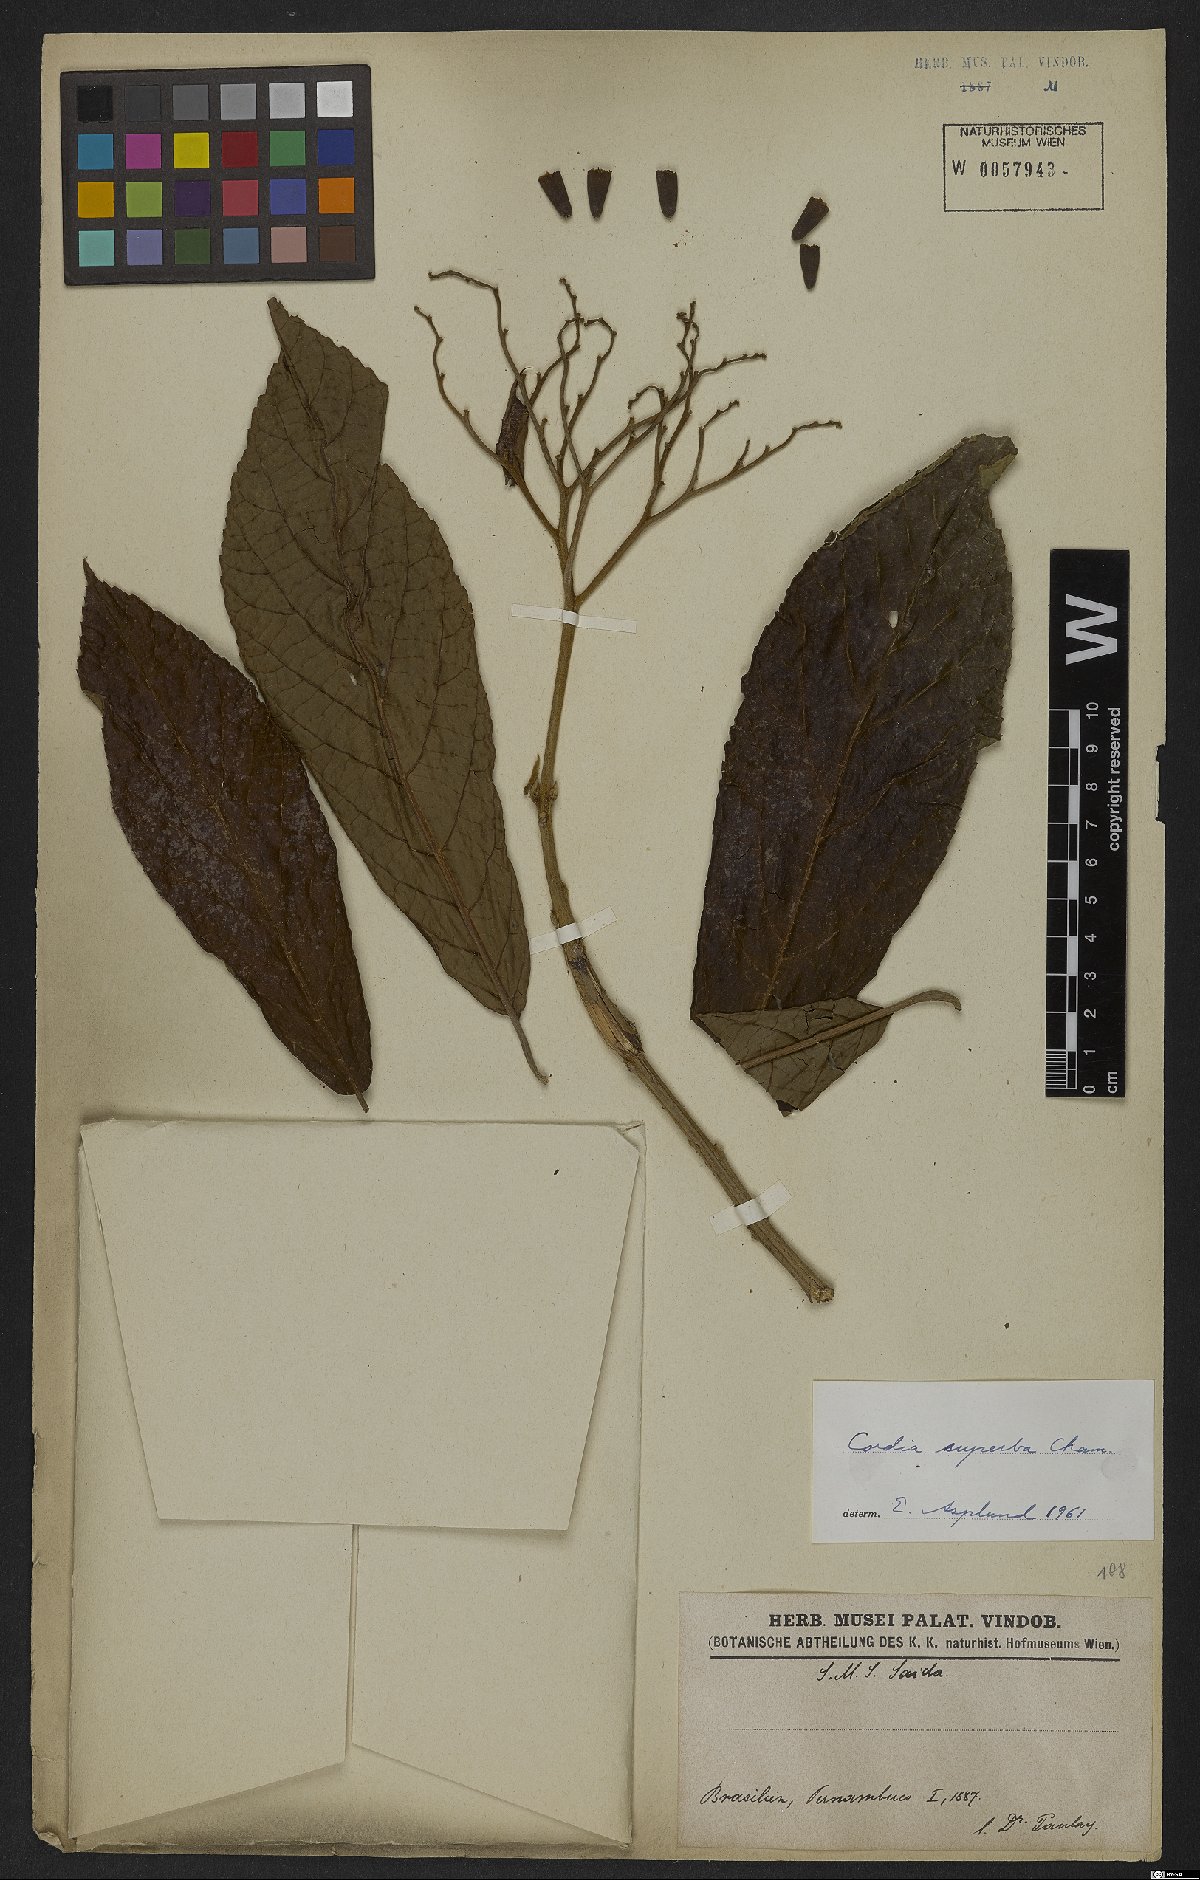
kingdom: Plantae
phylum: Tracheophyta
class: Magnoliopsida
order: Boraginales
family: Cordiaceae
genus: Cordia
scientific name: Cordia superba
